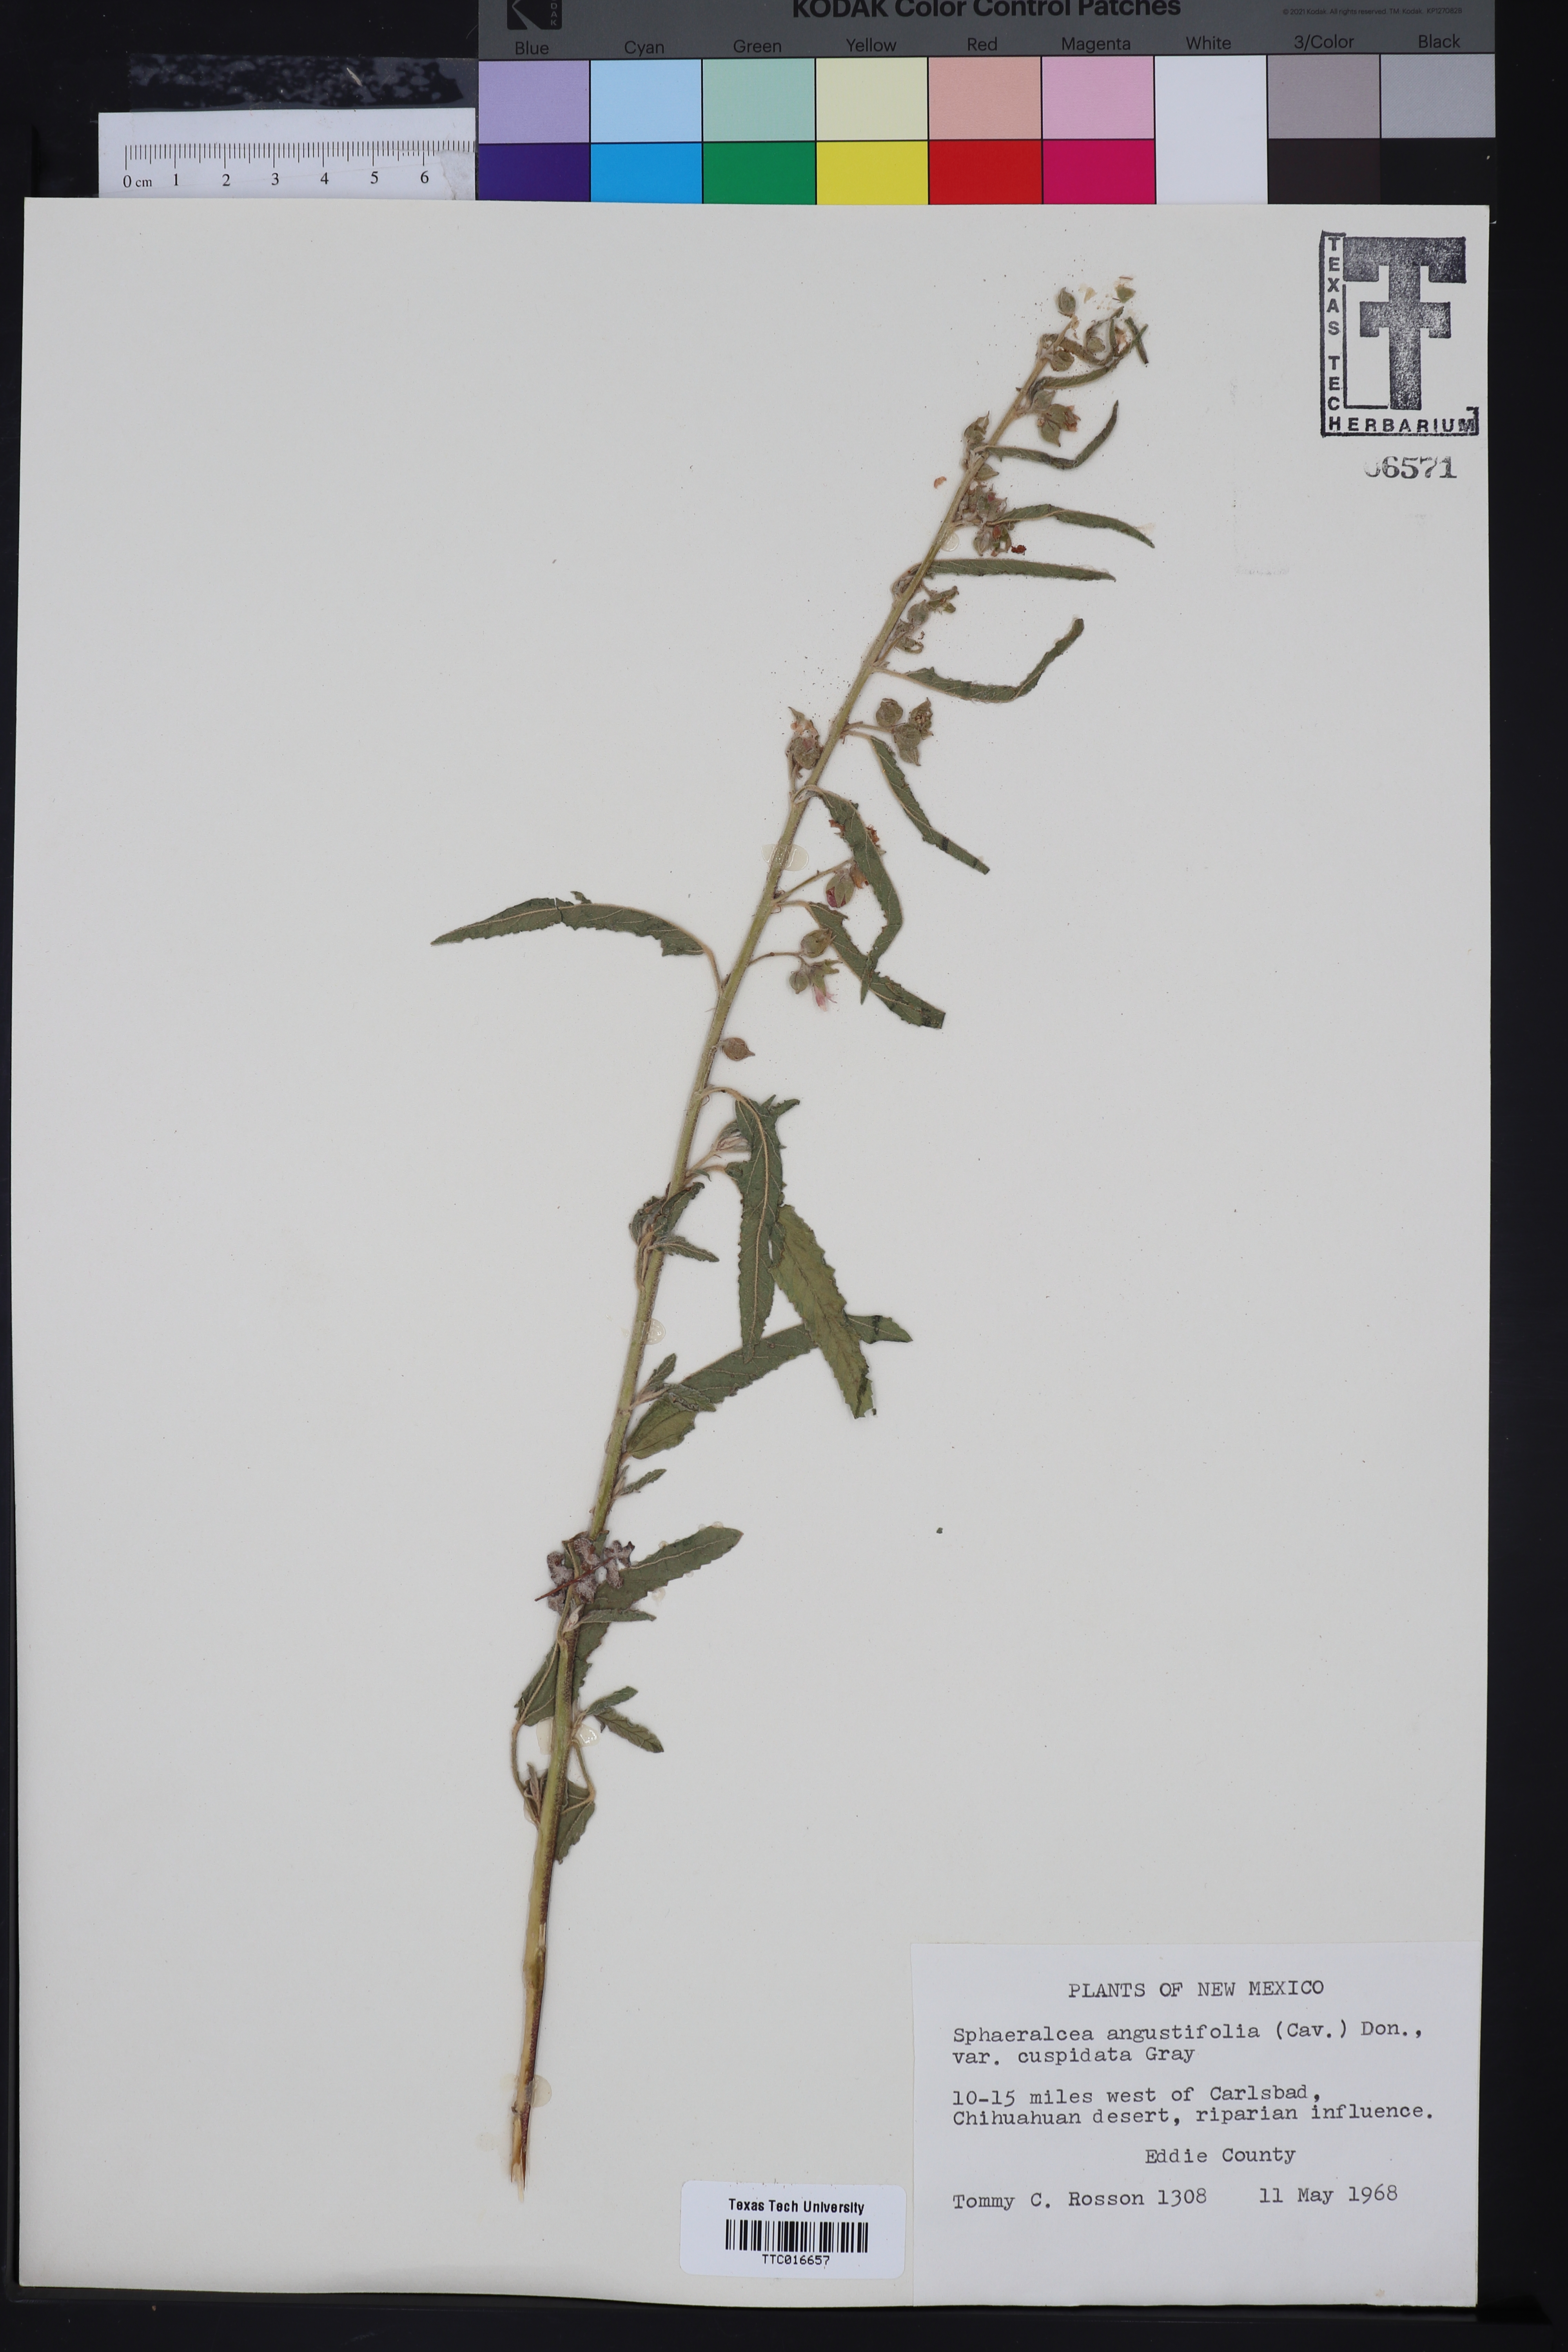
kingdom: Plantae
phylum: Tracheophyta
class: Magnoliopsida
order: Malvales
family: Malvaceae
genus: Sphaeralcea
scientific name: Sphaeralcea hastulata
